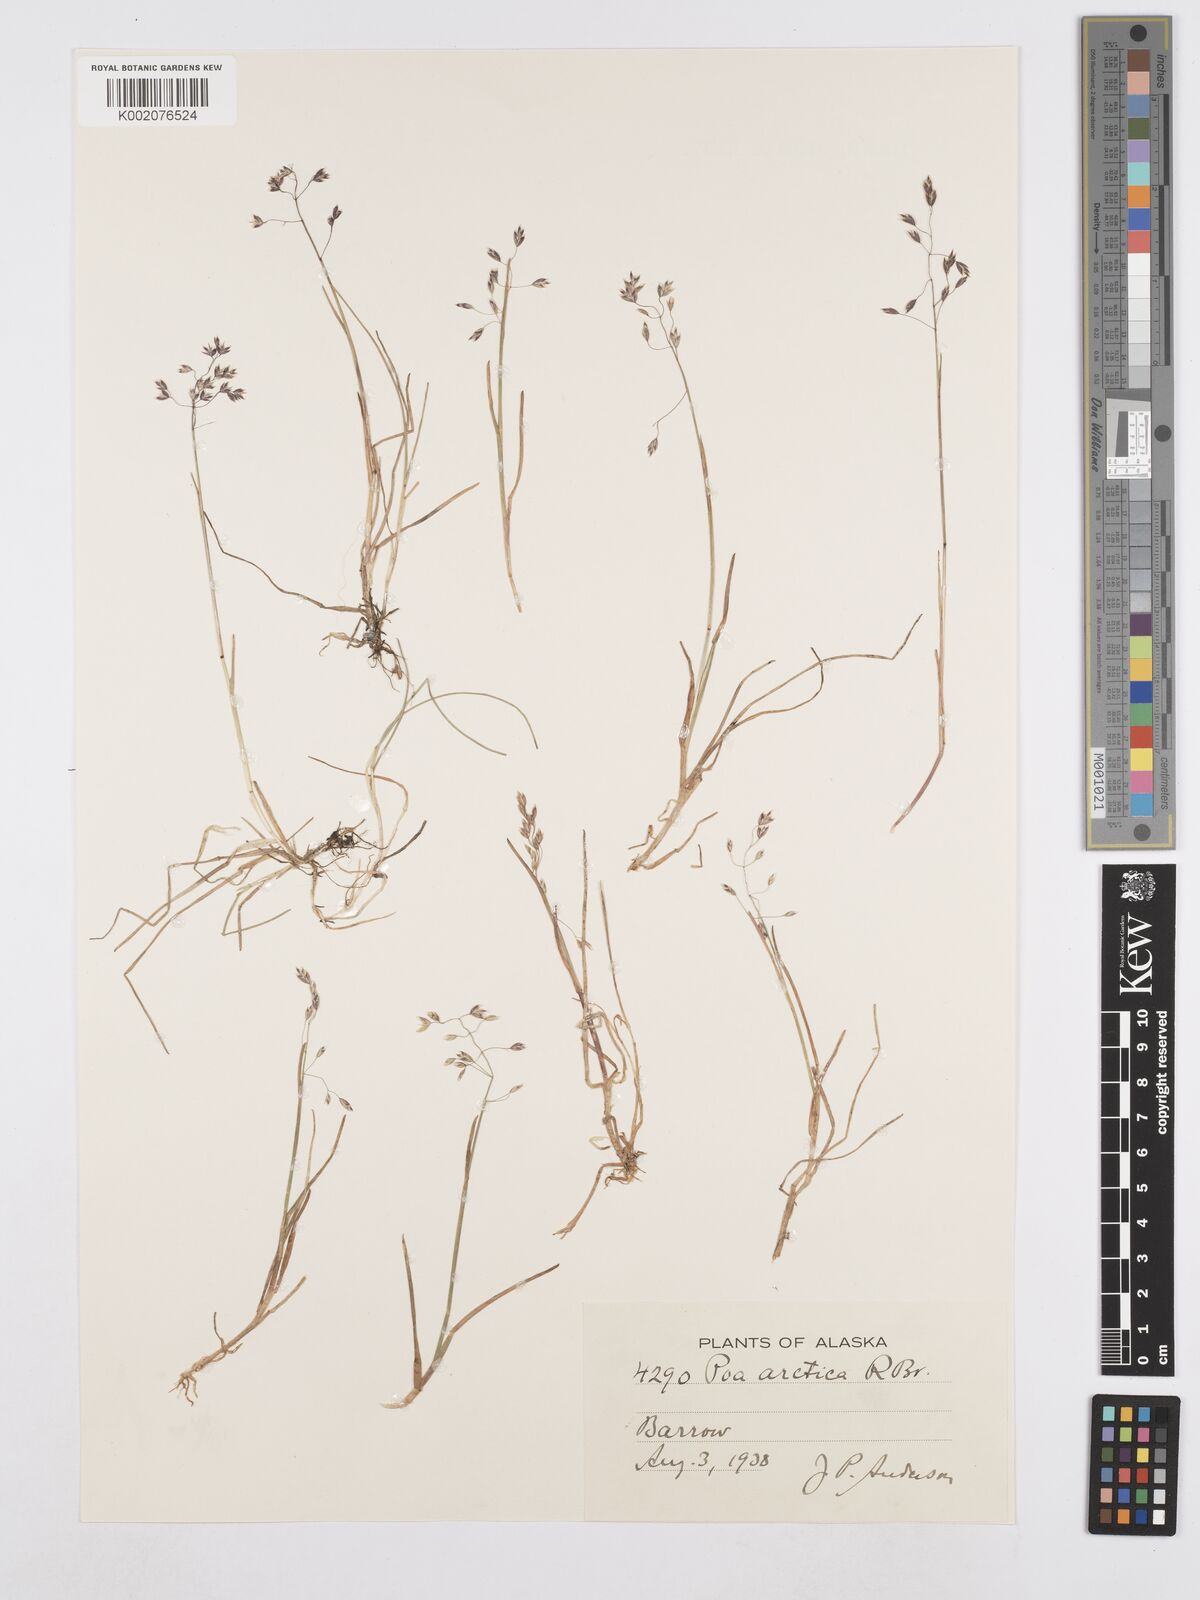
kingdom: Plantae
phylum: Tracheophyta
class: Liliopsida
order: Poales
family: Poaceae
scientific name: Poaceae
